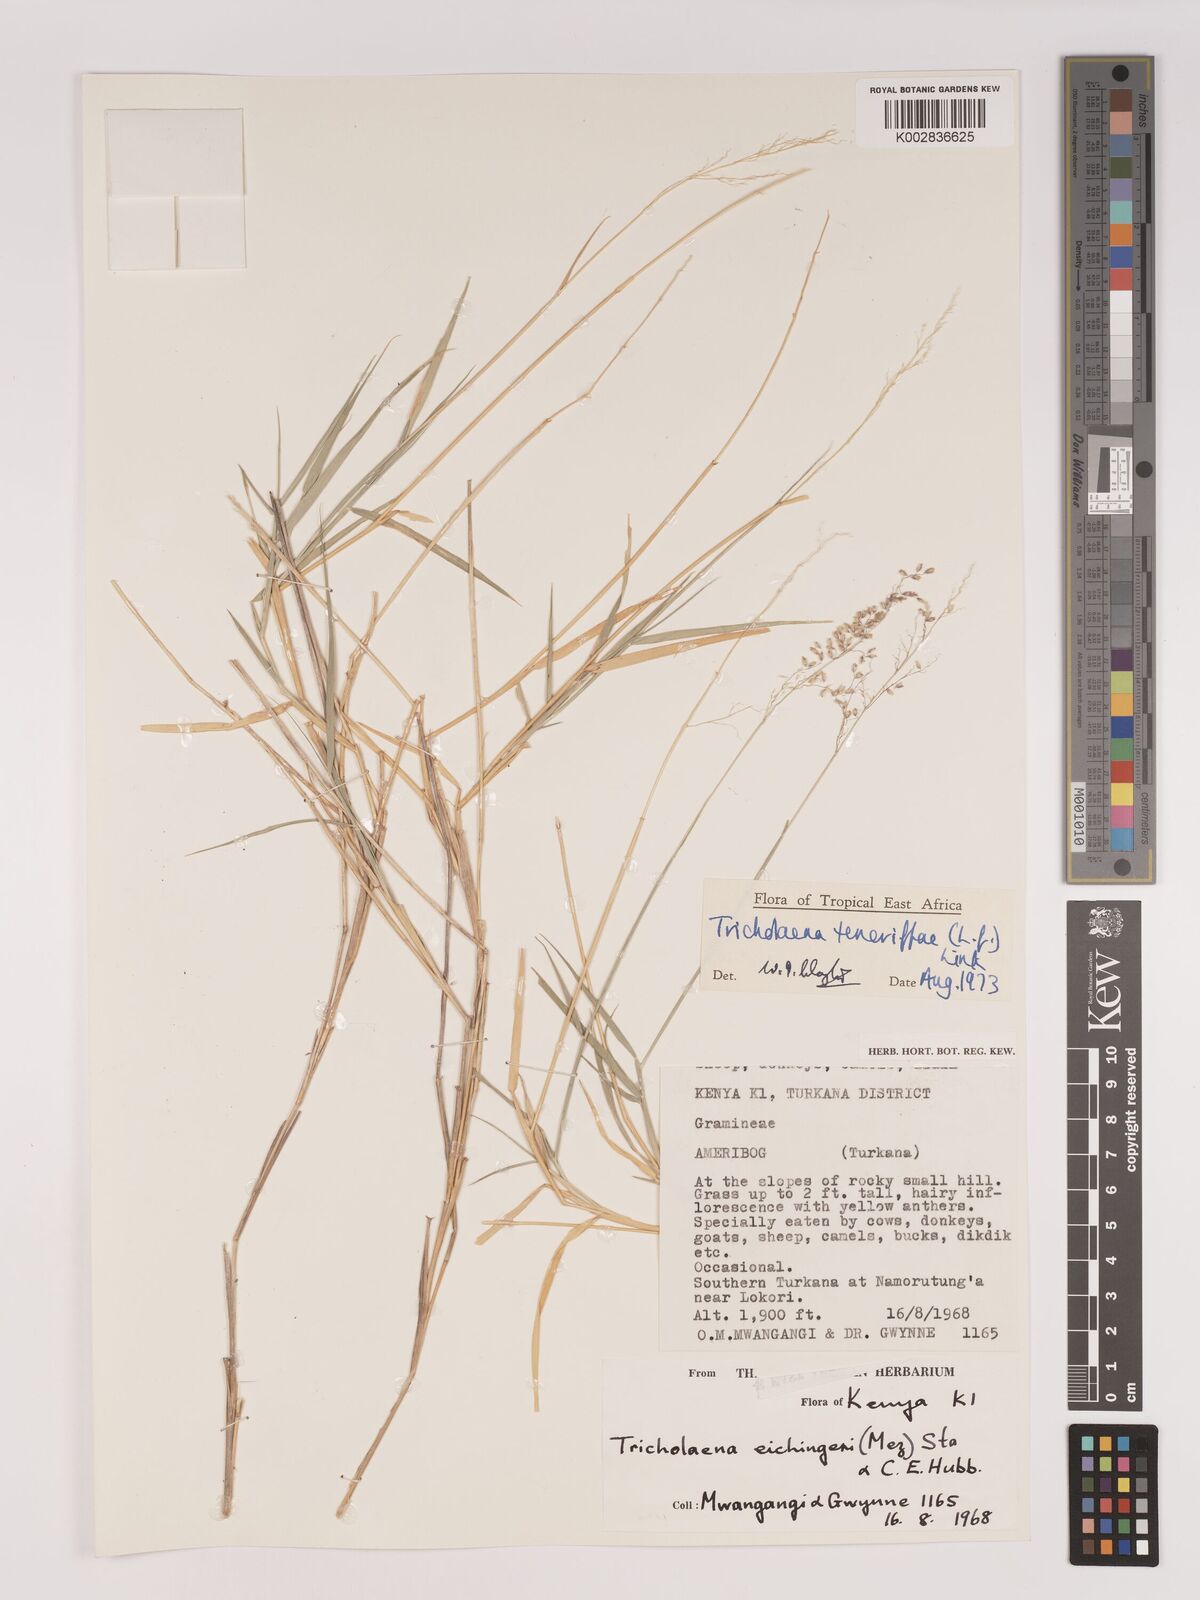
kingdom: Plantae
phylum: Tracheophyta
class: Liliopsida
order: Poales
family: Poaceae
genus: Tricholaena
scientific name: Tricholaena teneriffae
